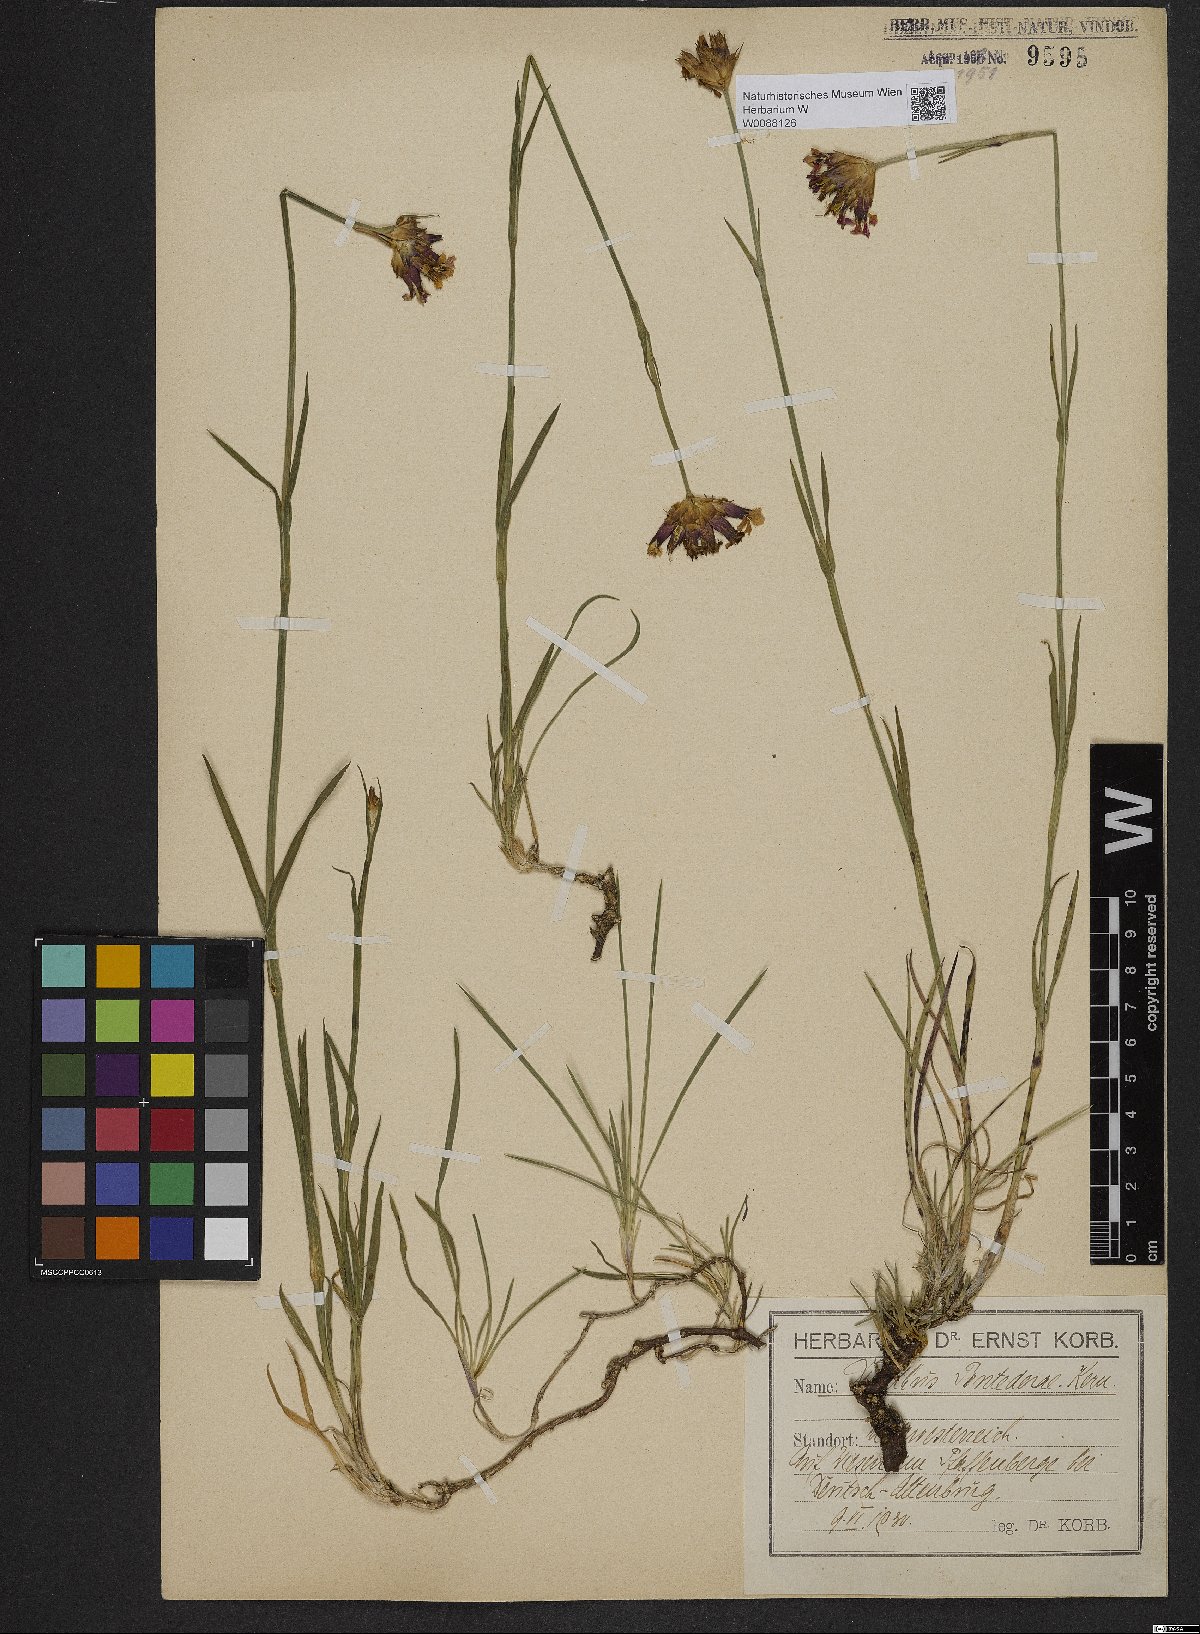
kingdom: Plantae
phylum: Tracheophyta
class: Magnoliopsida
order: Caryophyllales
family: Caryophyllaceae
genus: Dianthus
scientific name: Dianthus pontederae
